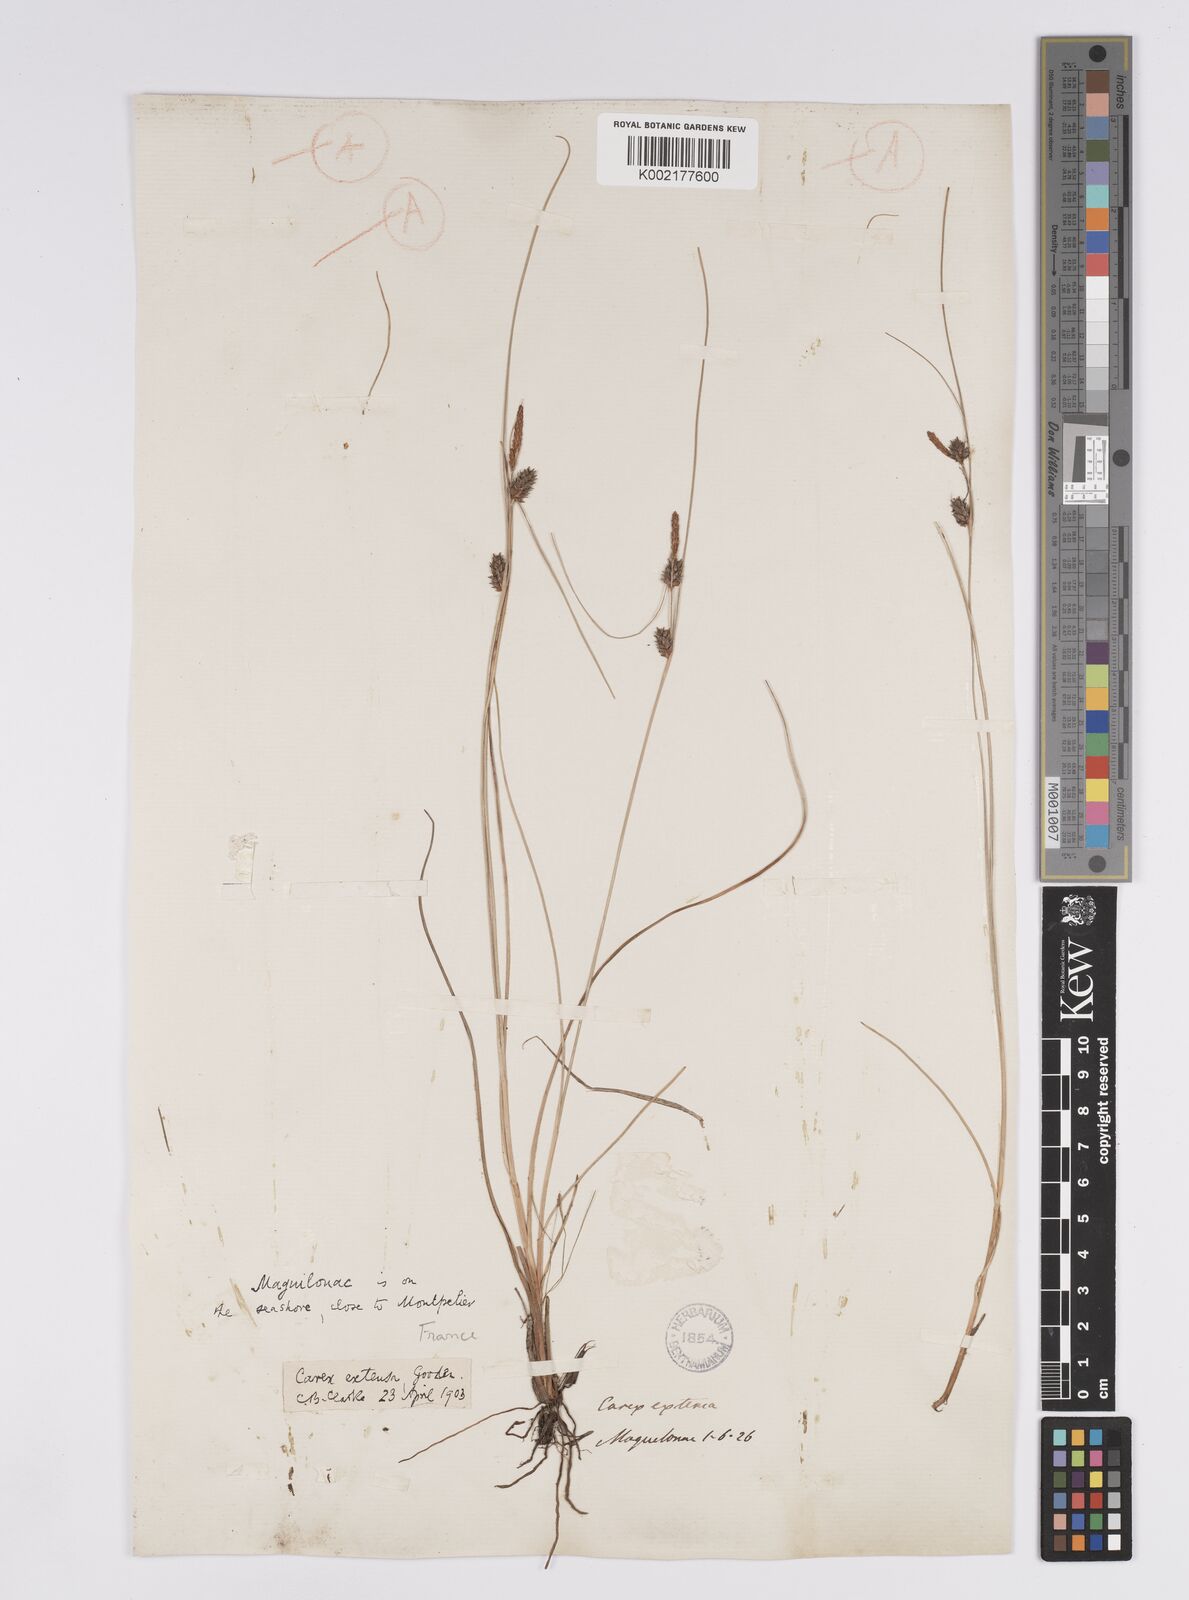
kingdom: Plantae
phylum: Tracheophyta
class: Liliopsida
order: Poales
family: Cyperaceae
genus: Carex
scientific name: Carex extensa
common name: Long-bracted sedge
